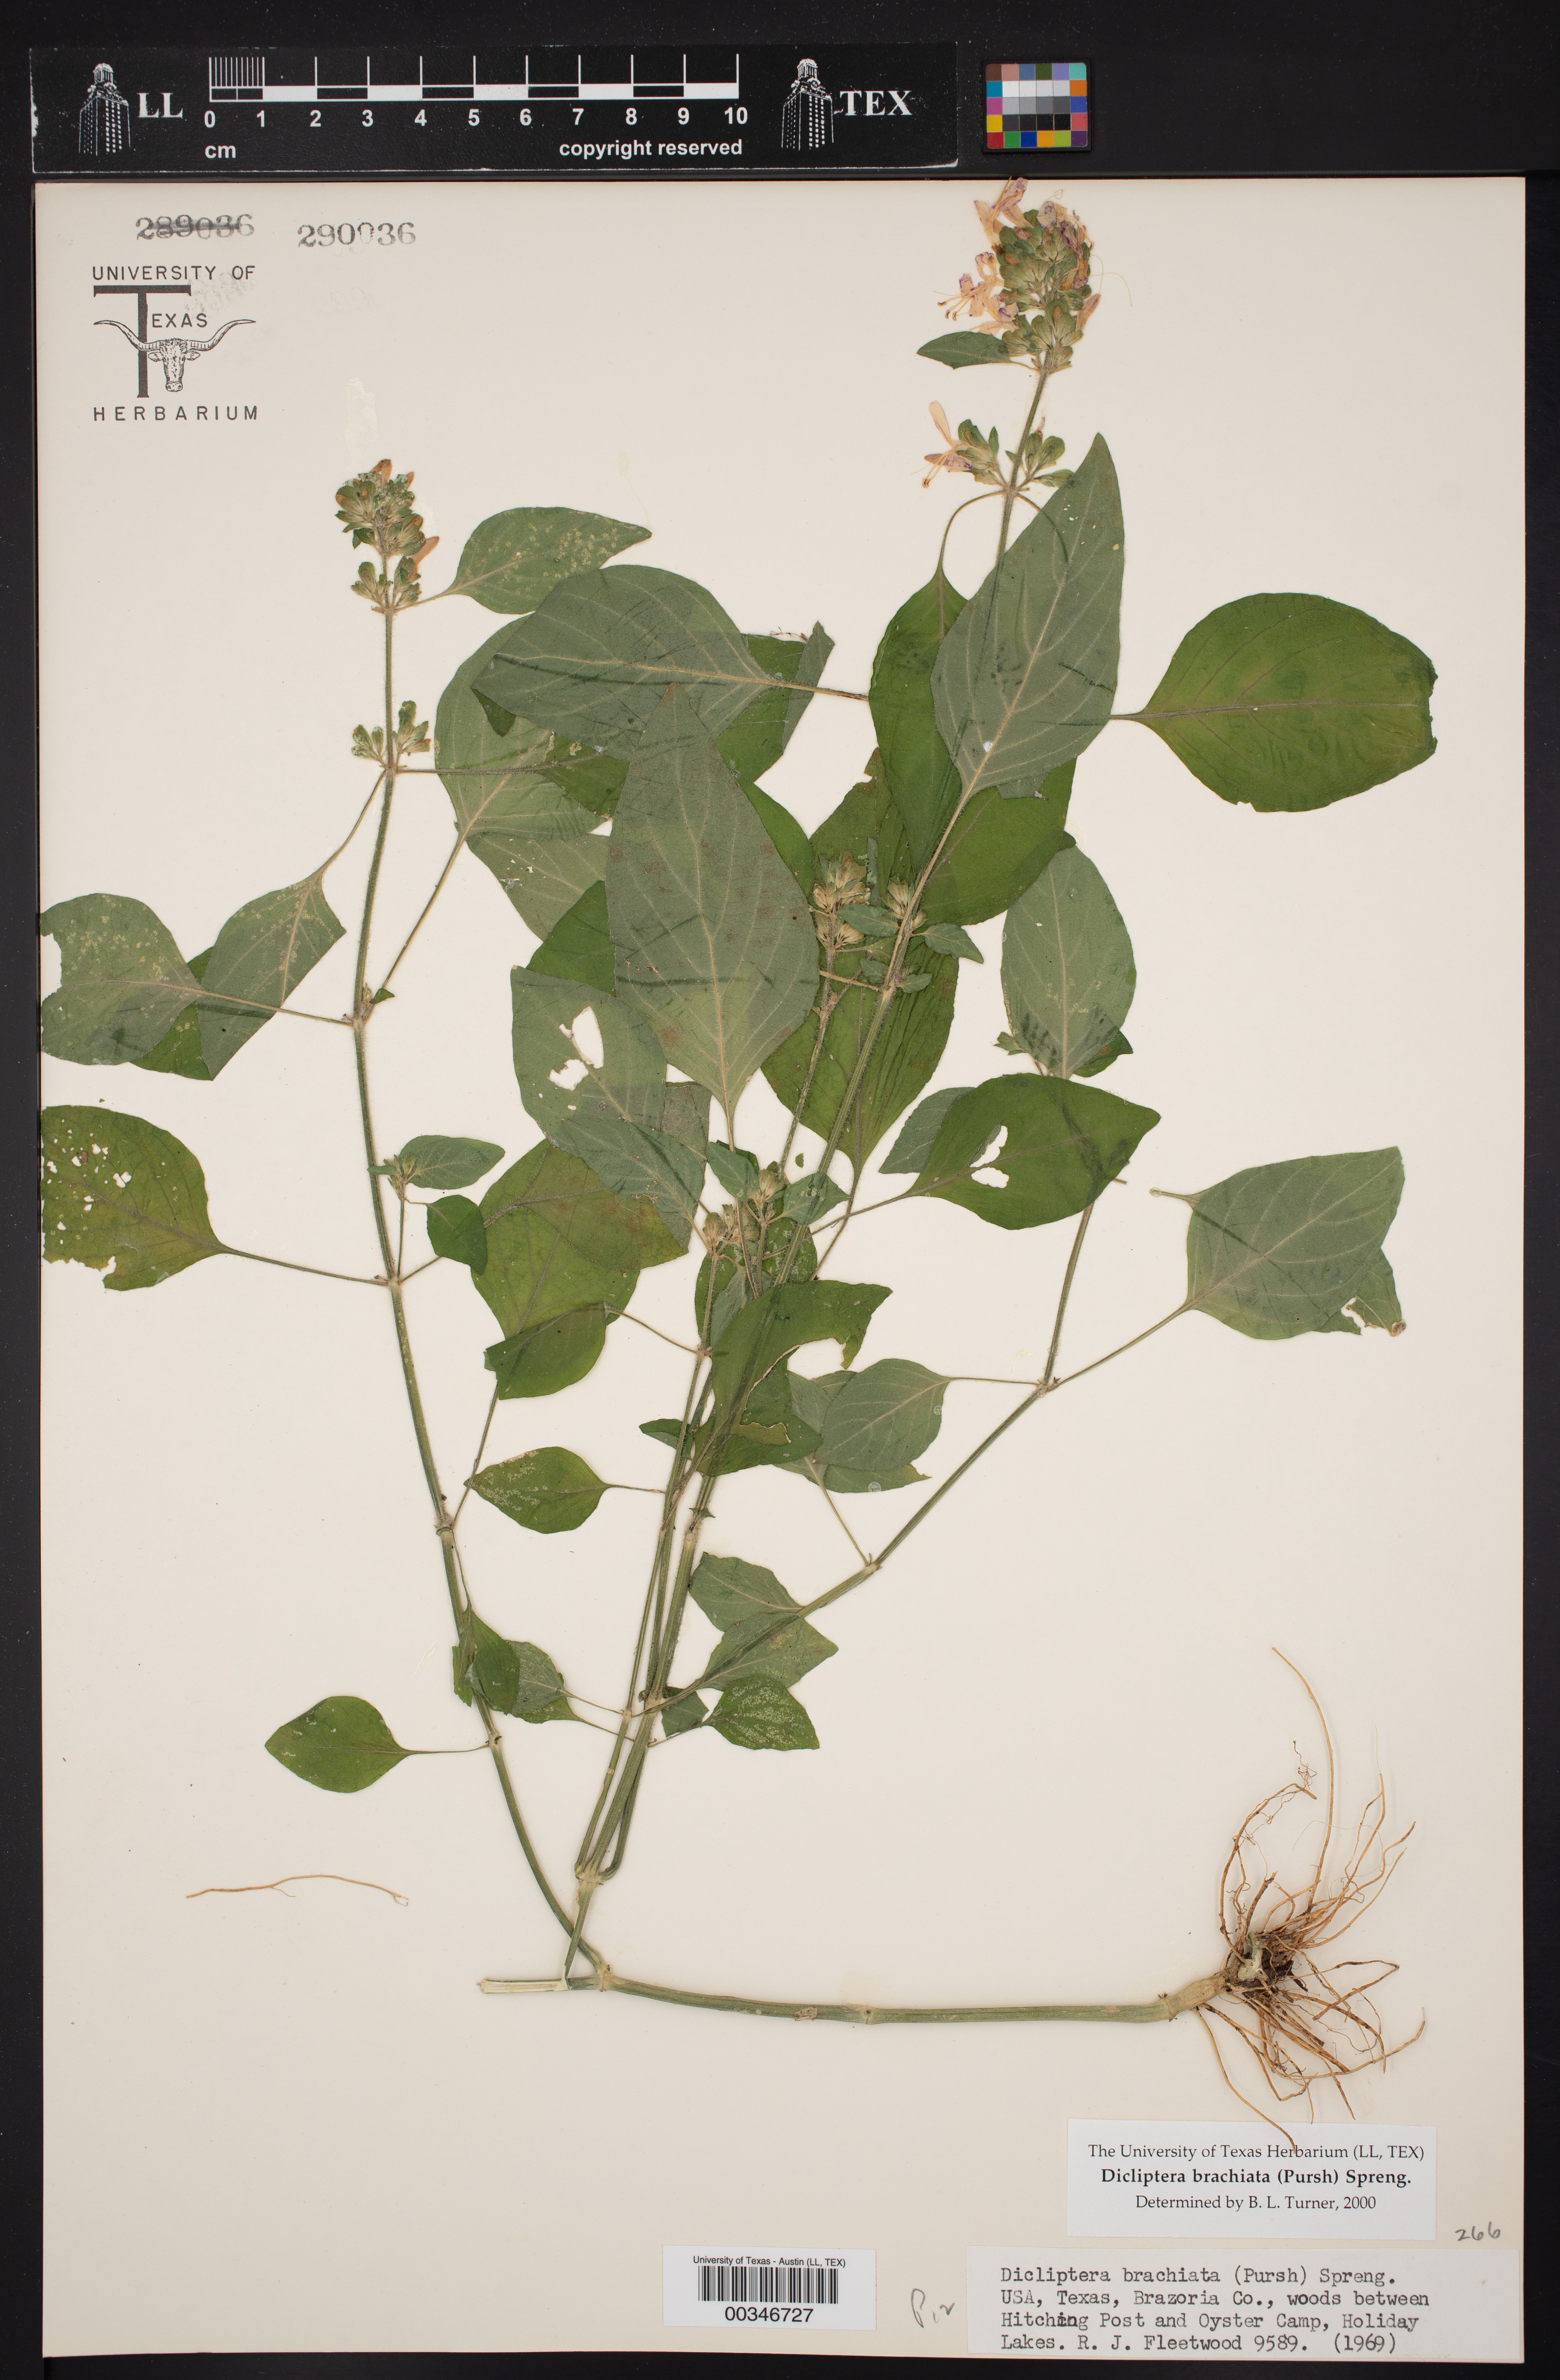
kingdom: Plantae
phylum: Tracheophyta
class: Magnoliopsida
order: Lamiales
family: Acanthaceae
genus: Dicliptera
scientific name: Dicliptera brachiata
